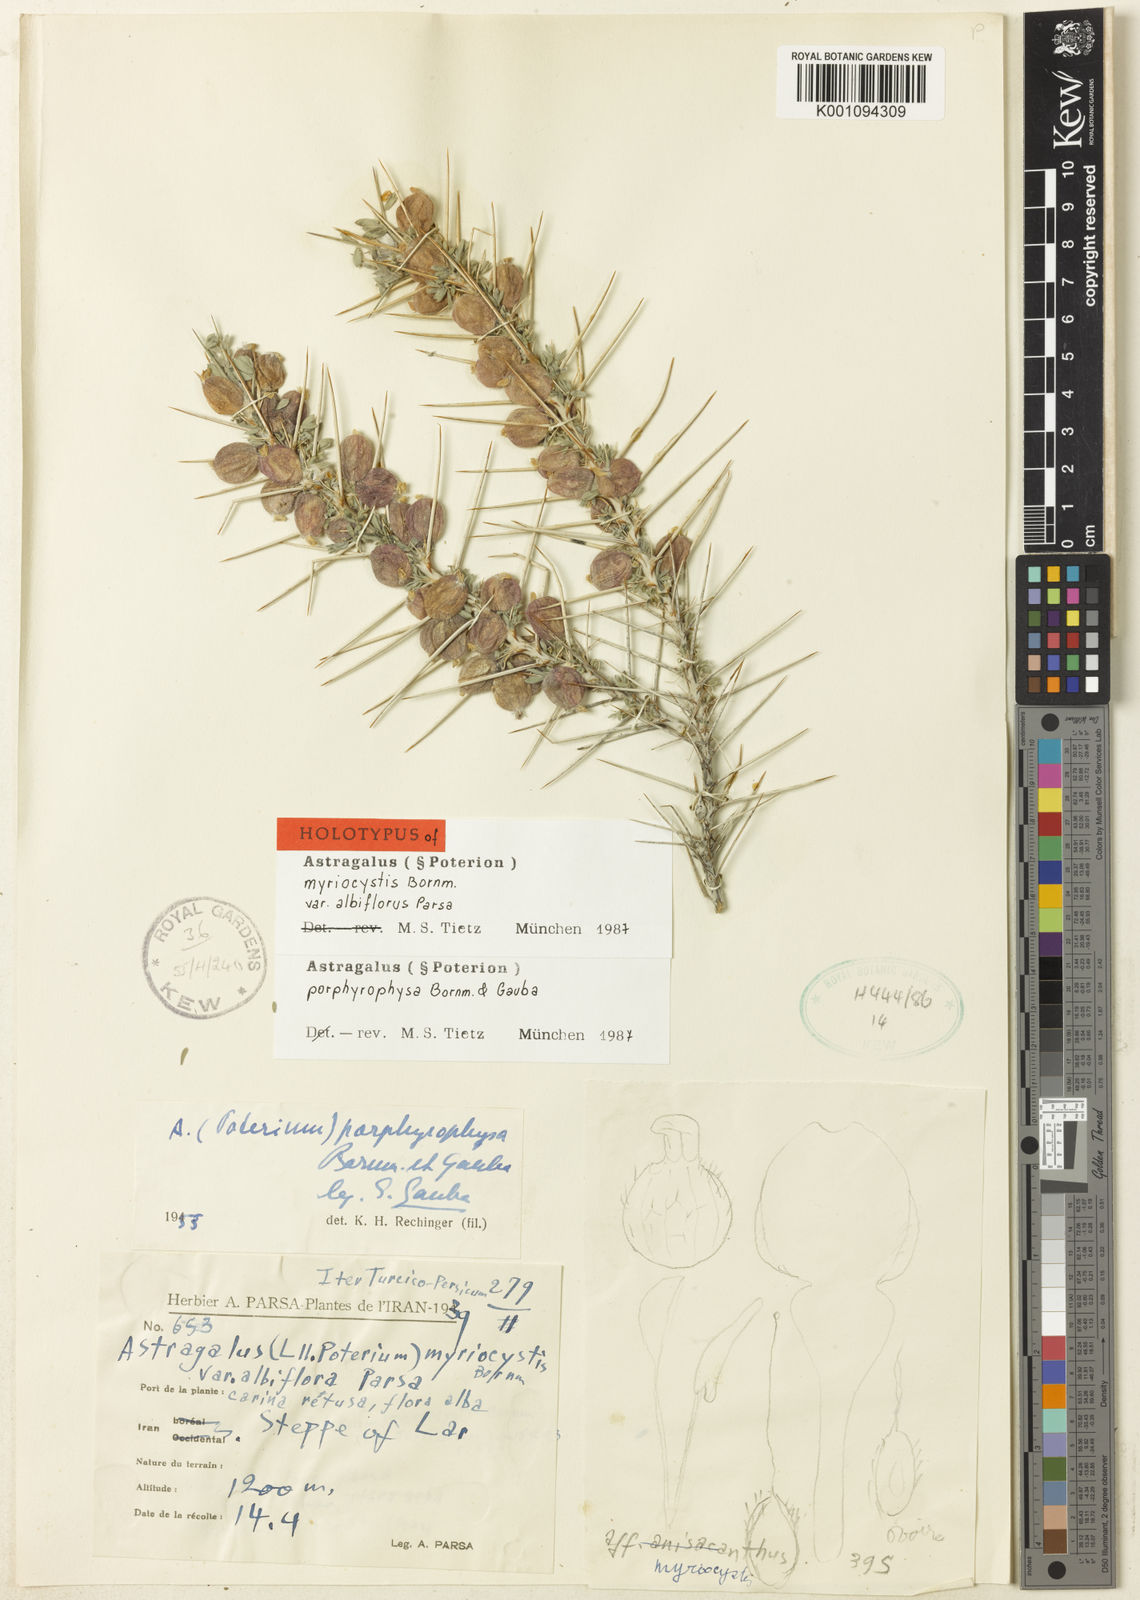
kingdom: Plantae
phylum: Tracheophyta
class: Magnoliopsida
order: Fabales
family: Fabaceae
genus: Astragalus
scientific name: Astragalus
